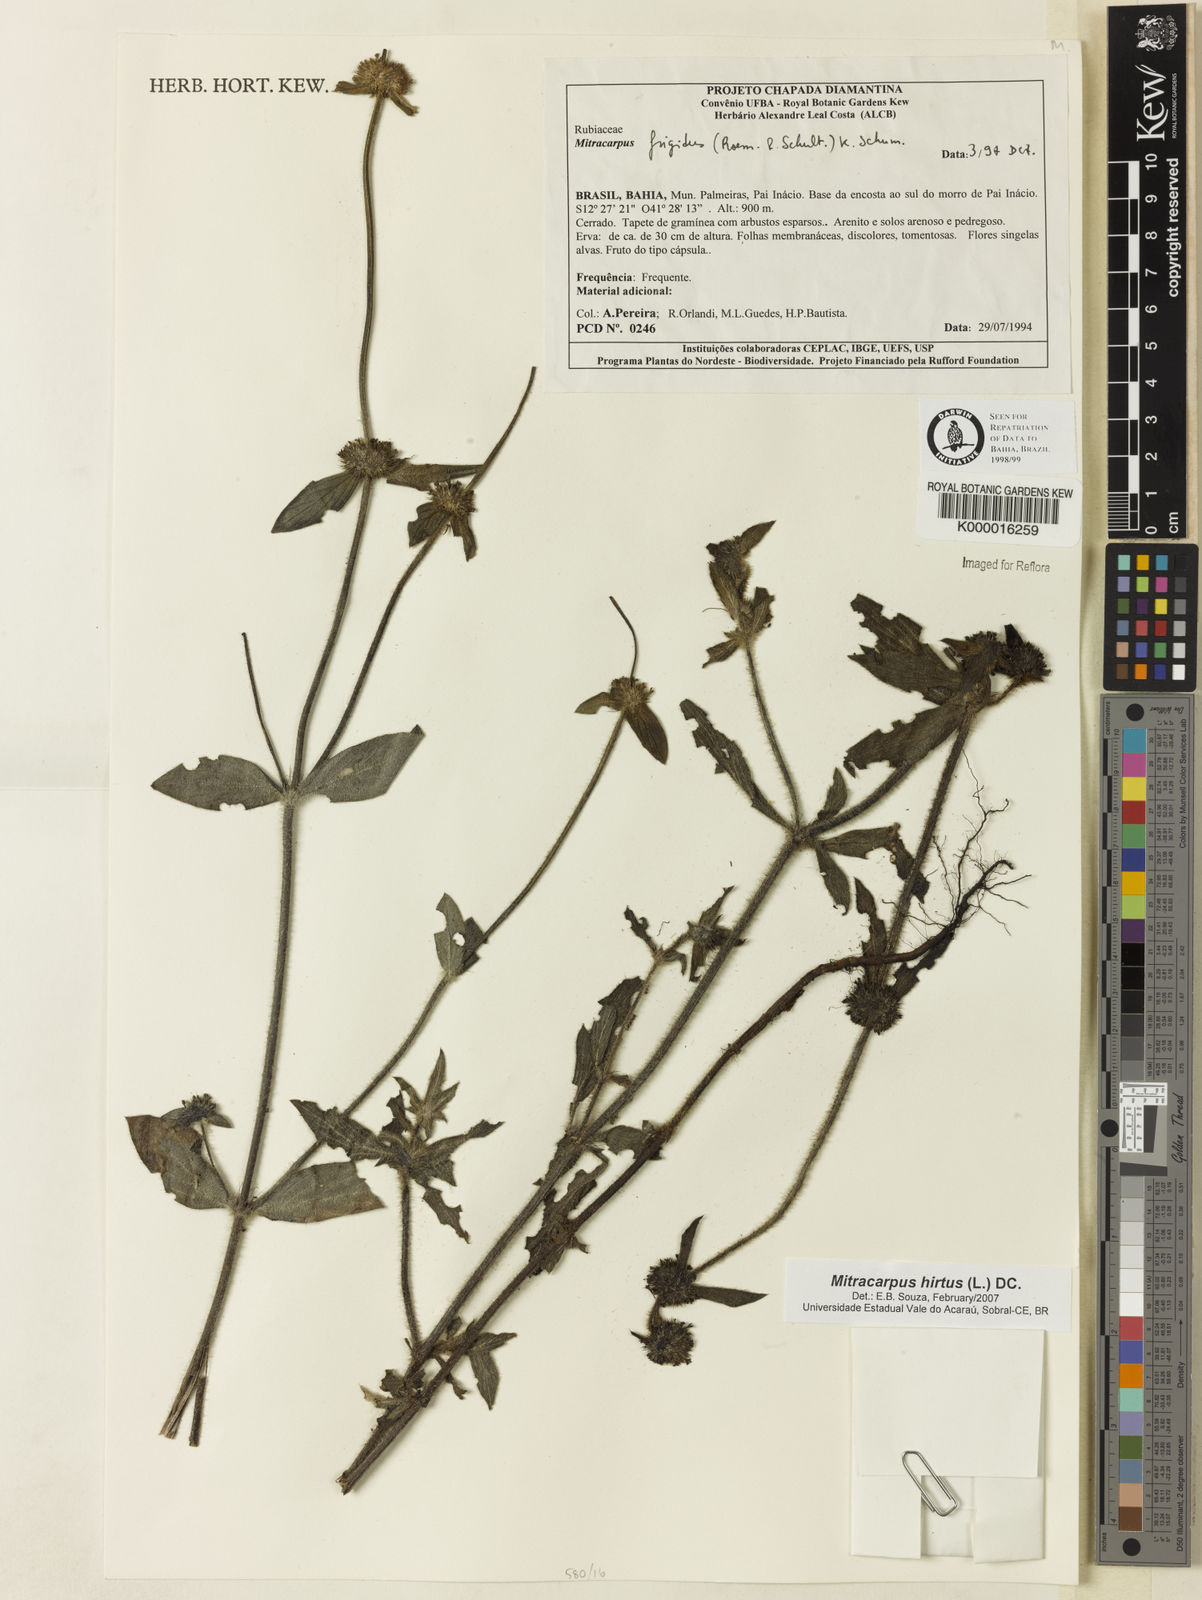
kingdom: Plantae
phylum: Tracheophyta
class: Magnoliopsida
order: Gentianales
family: Rubiaceae
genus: Mitracarpus
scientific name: Mitracarpus hirtus
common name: Tropical girdlepod
